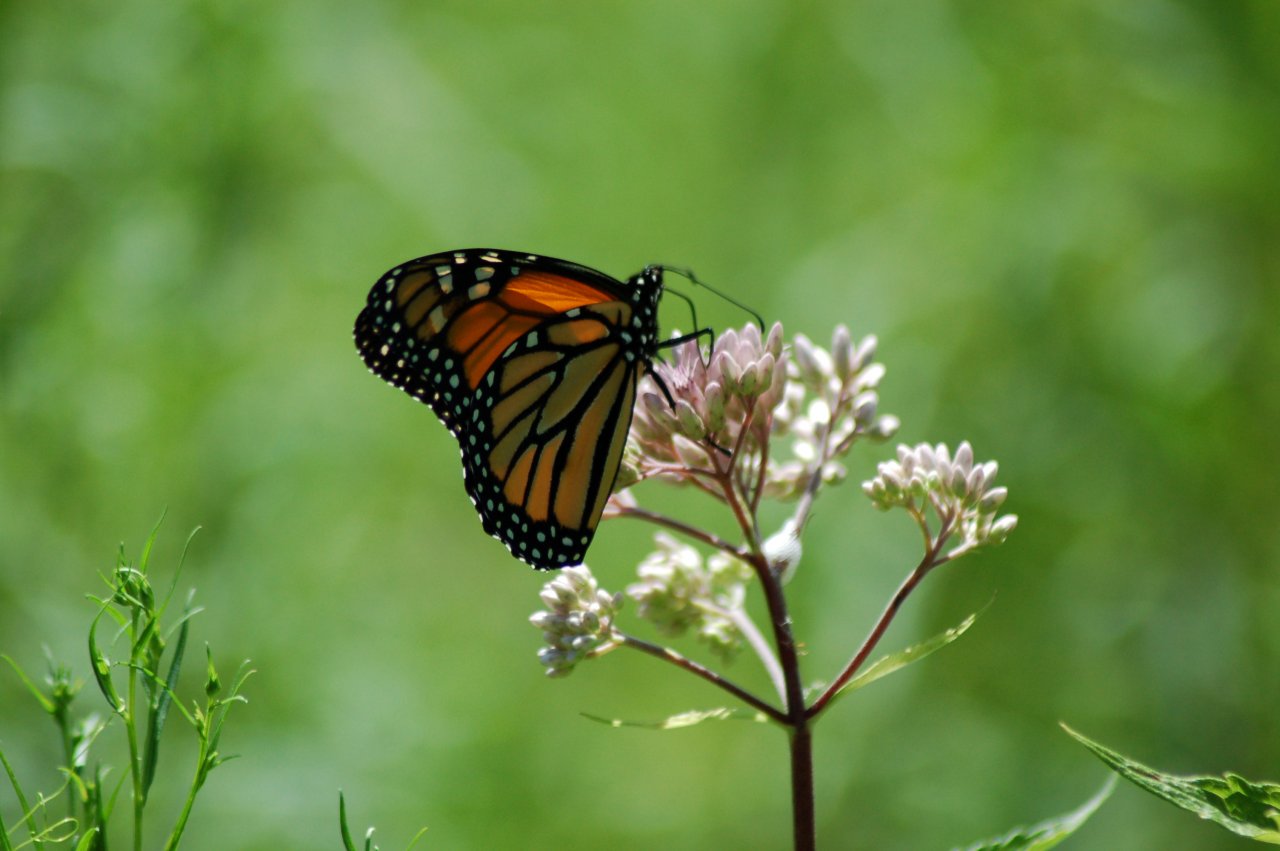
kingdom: Animalia
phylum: Arthropoda
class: Insecta
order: Lepidoptera
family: Nymphalidae
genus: Danaus
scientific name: Danaus plexippus
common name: Monarch
